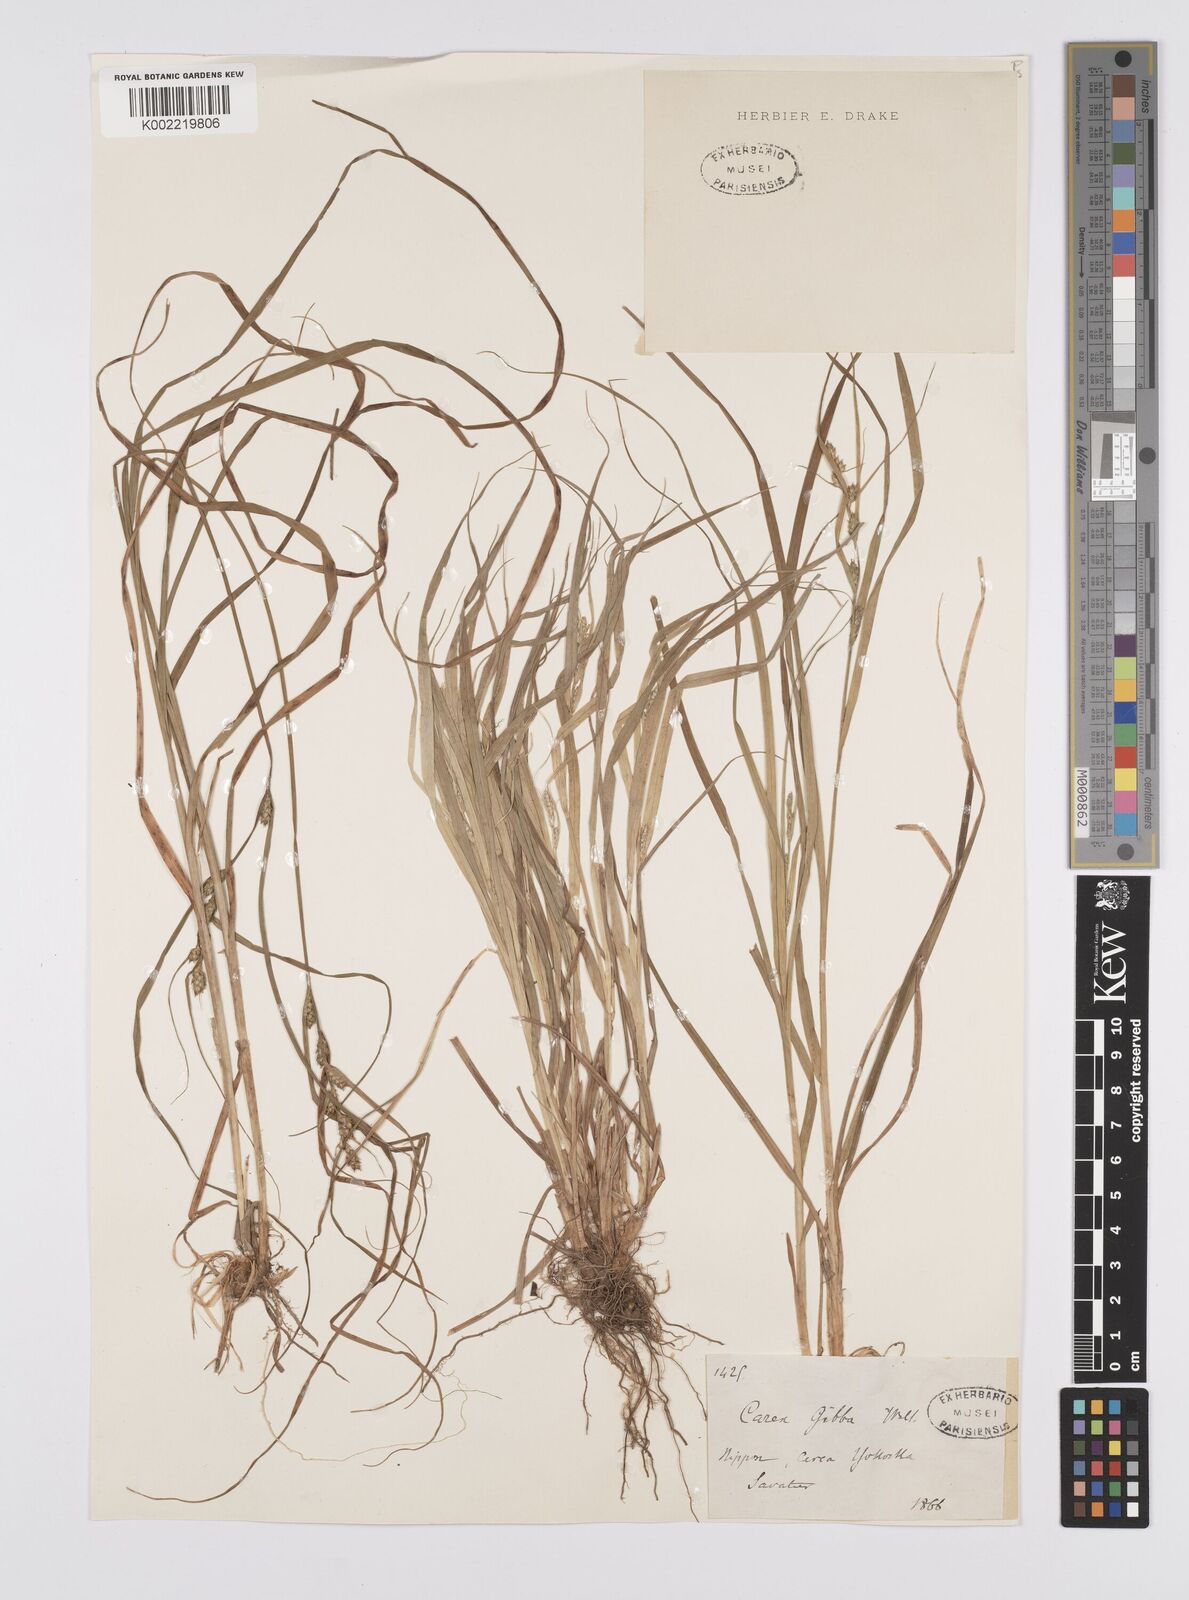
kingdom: Plantae
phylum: Tracheophyta
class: Liliopsida
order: Poales
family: Cyperaceae
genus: Carex
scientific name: Carex gibba
